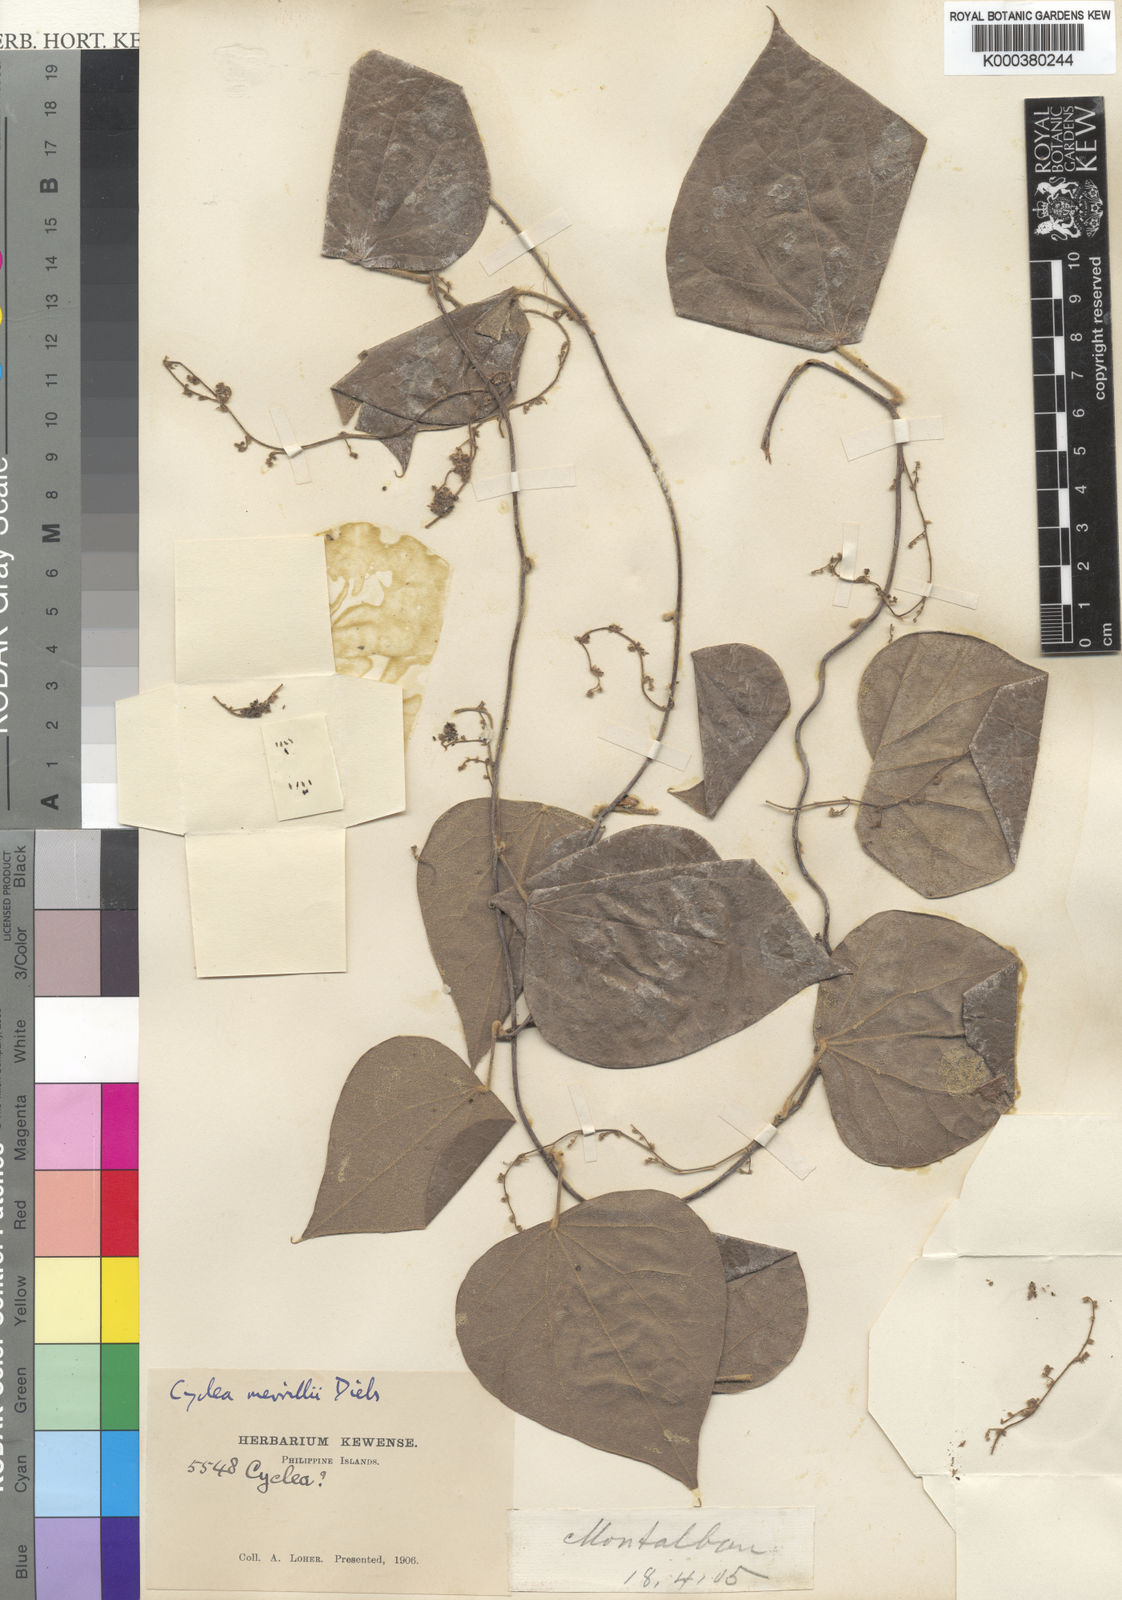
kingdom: Plantae
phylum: Tracheophyta
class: Magnoliopsida
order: Ranunculales
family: Menispermaceae
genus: Cyclea
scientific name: Cyclea merrillii
